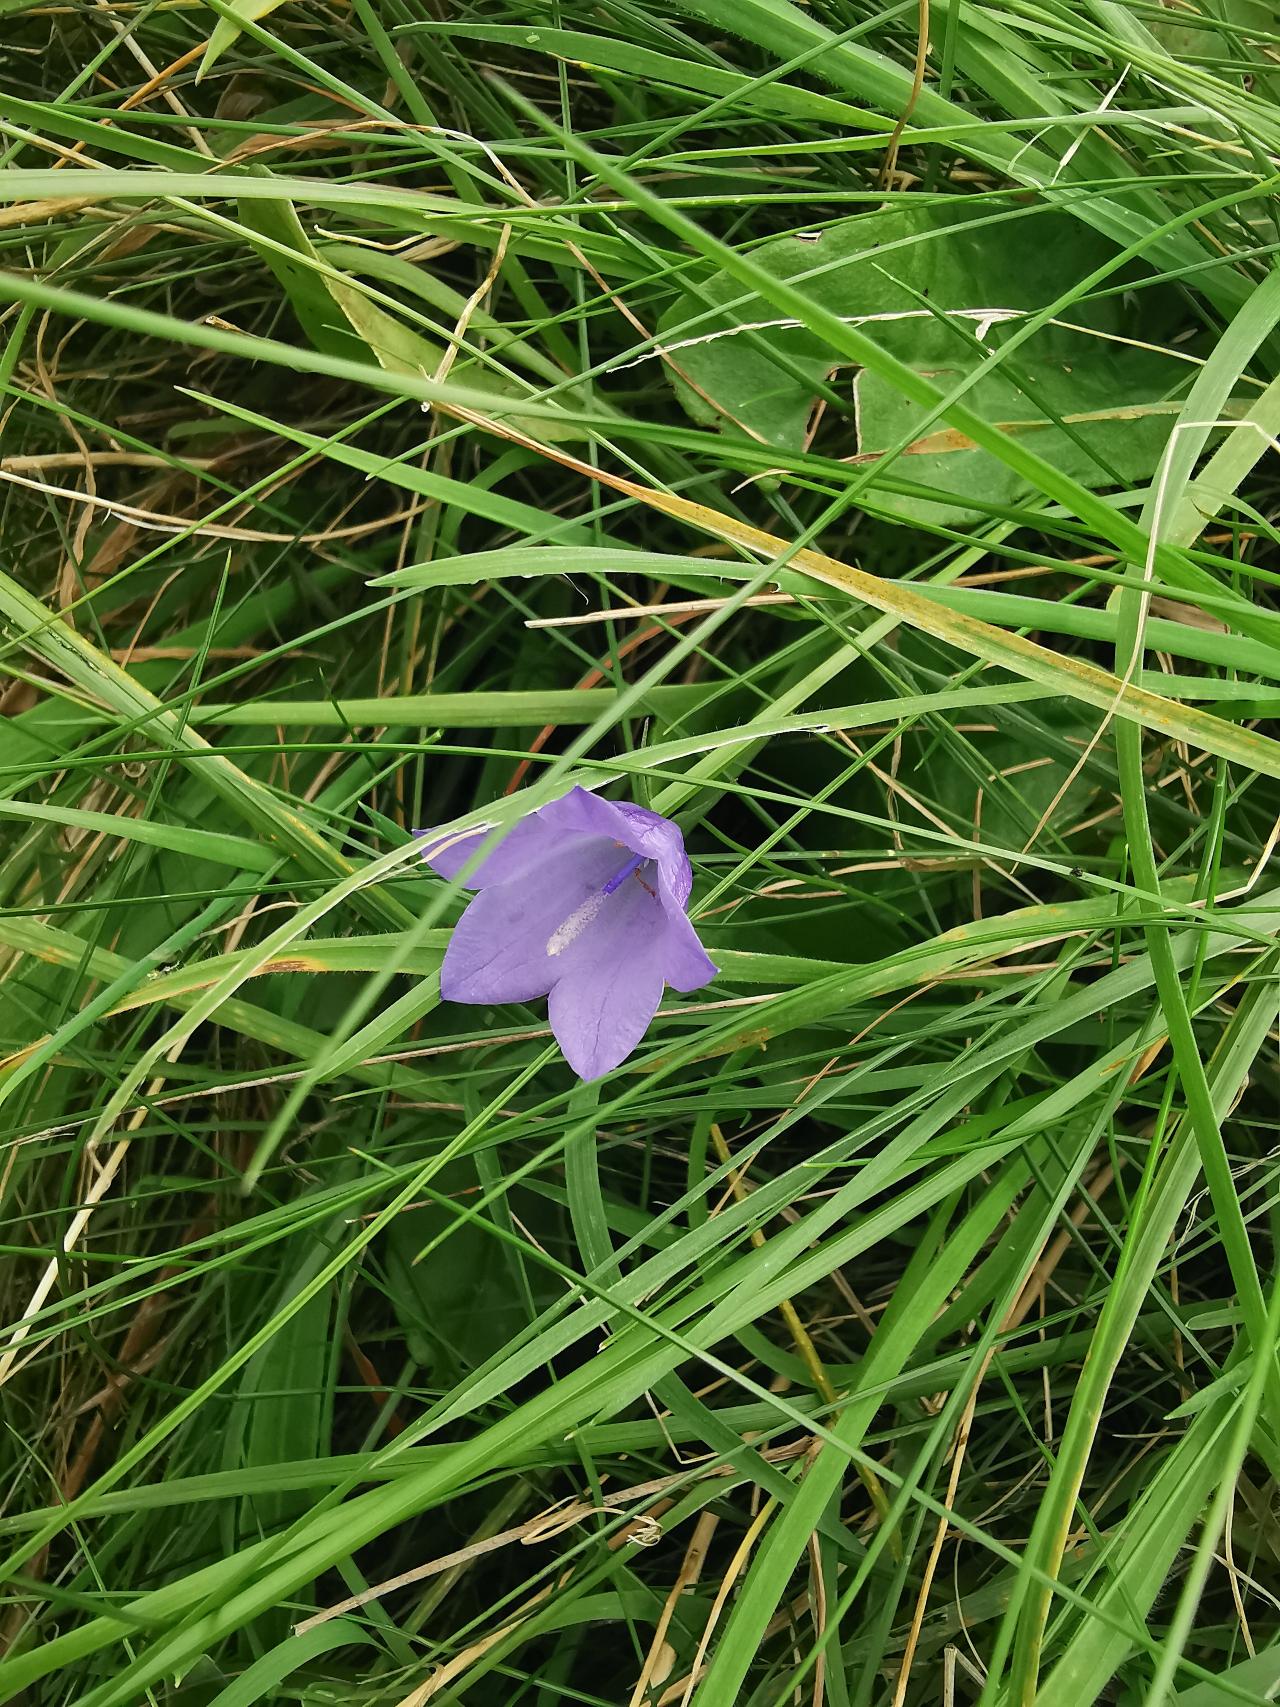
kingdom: Plantae
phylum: Tracheophyta
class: Magnoliopsida
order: Asterales
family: Campanulaceae
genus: Campanula
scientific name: Campanula rotundifolia
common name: Liden klokke
